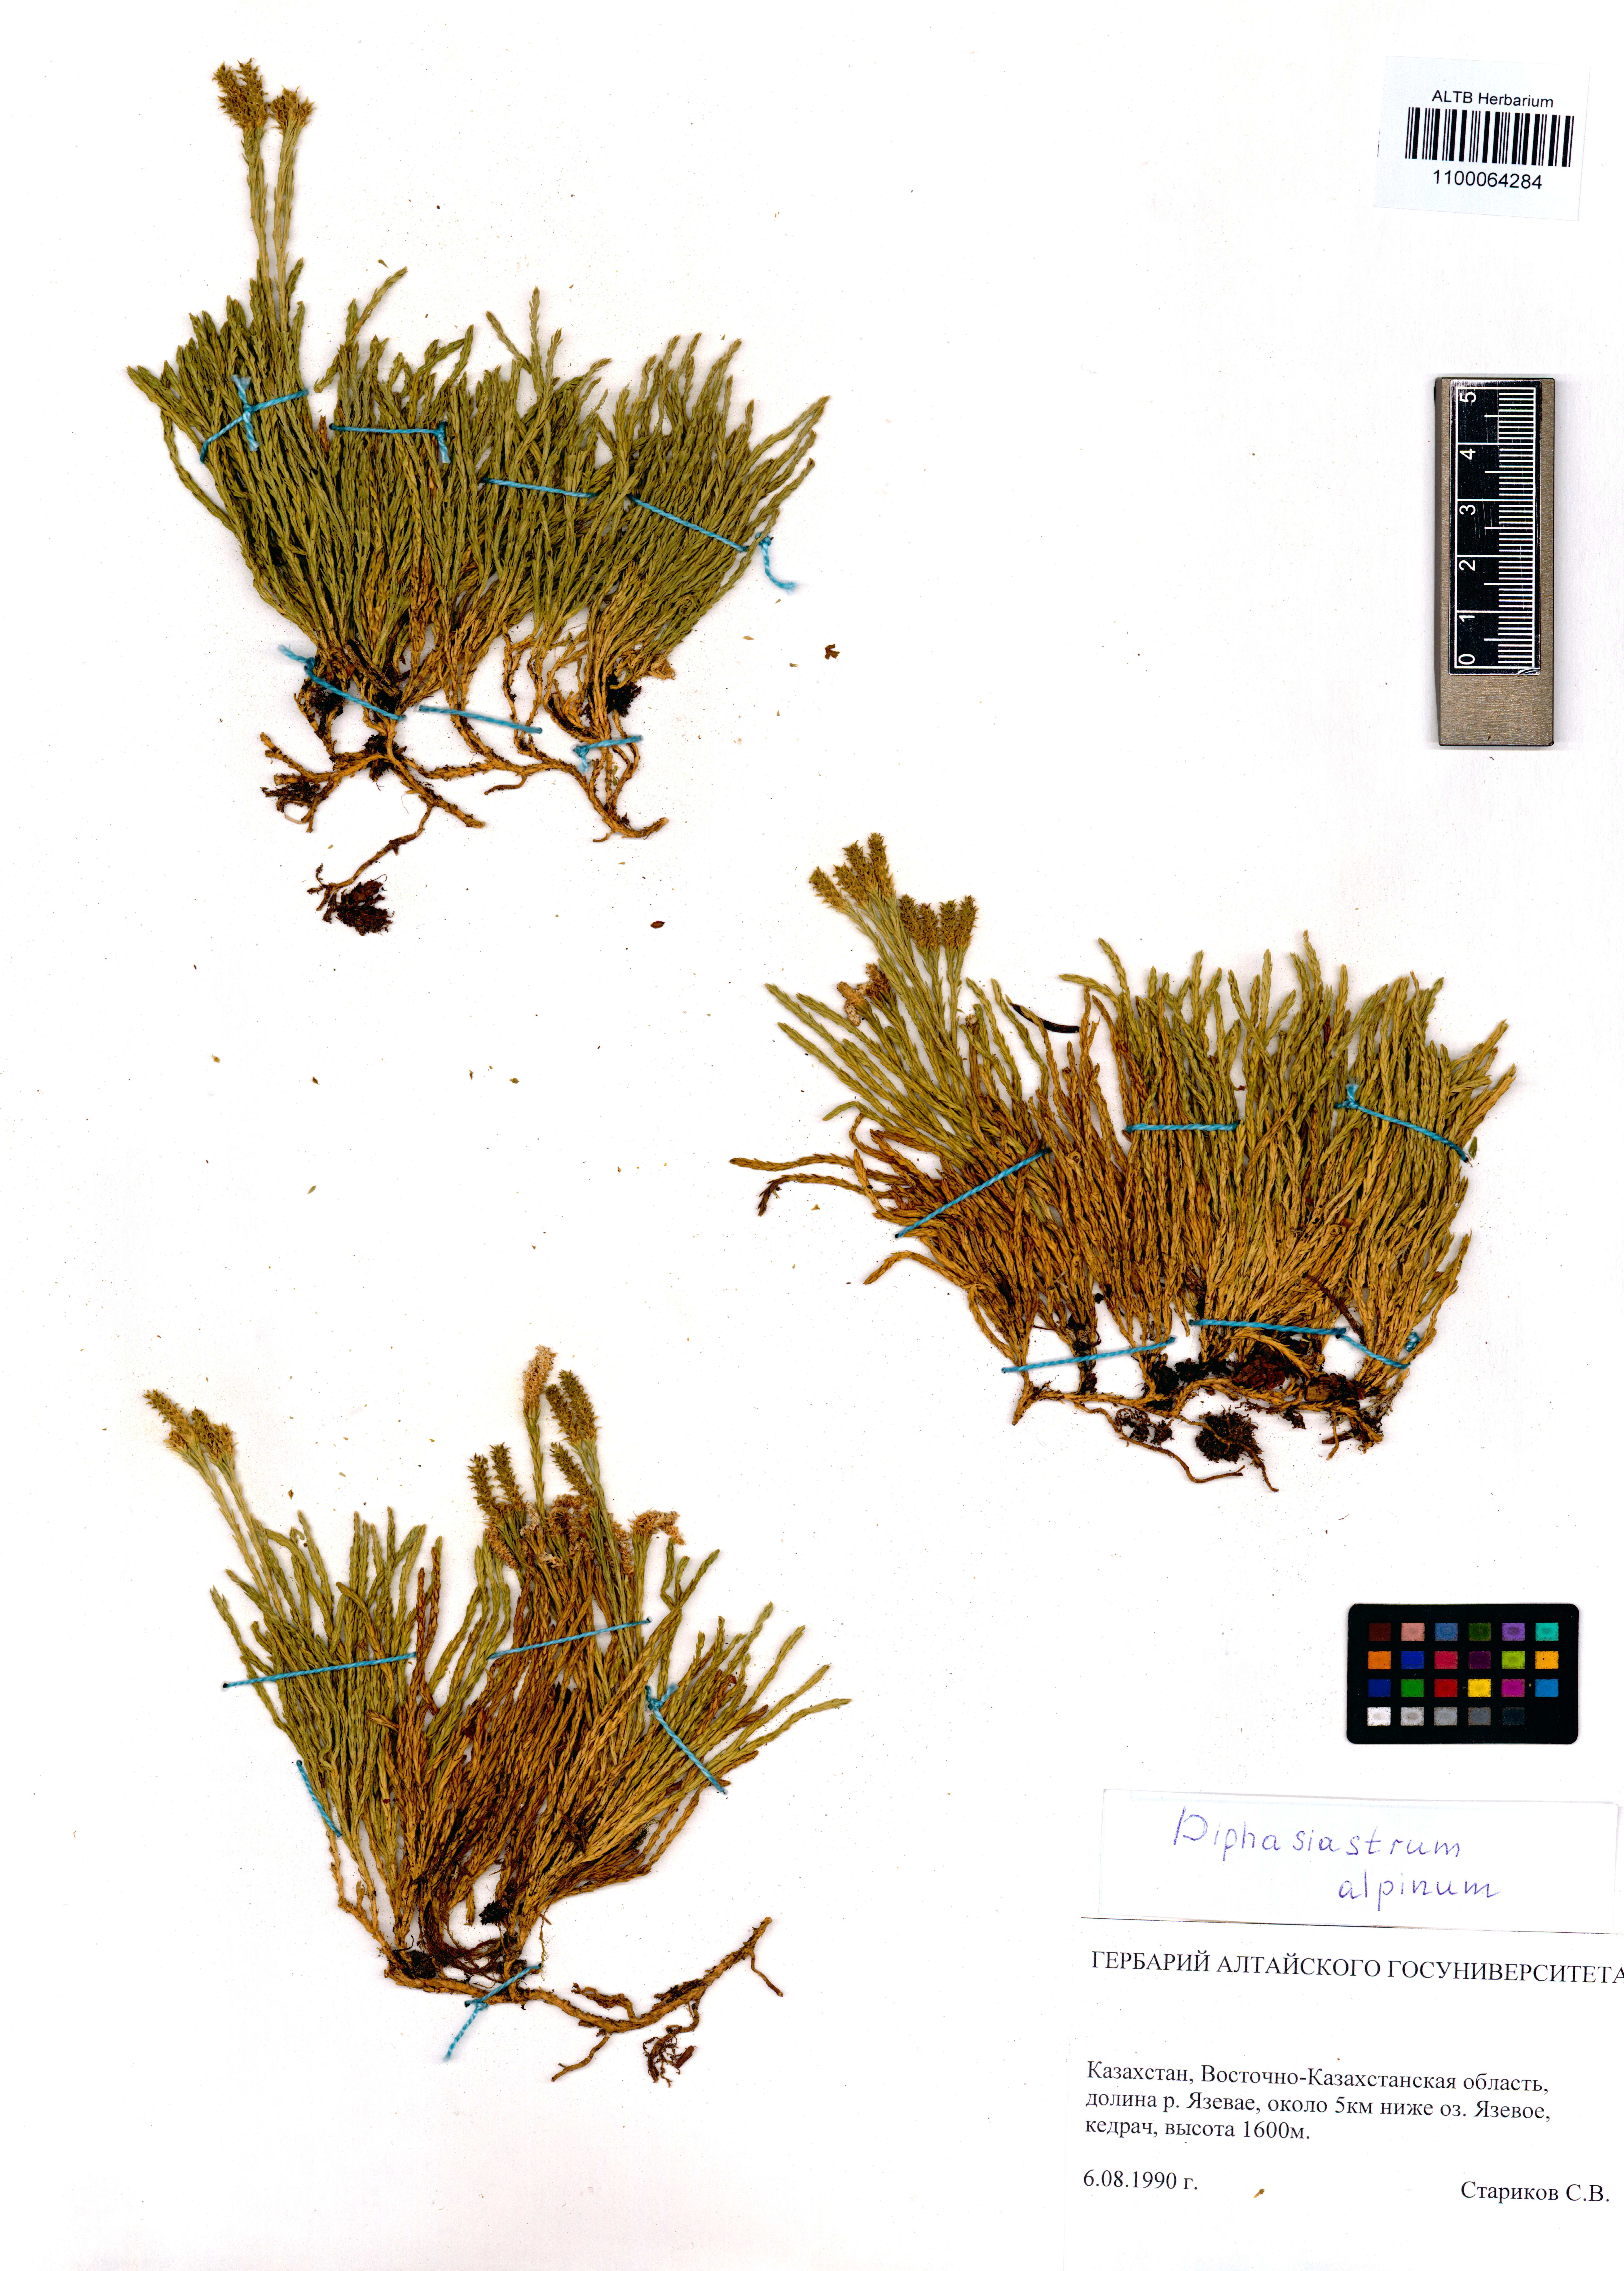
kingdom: Plantae
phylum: Tracheophyta
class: Lycopodiopsida
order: Lycopodiales
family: Lycopodiaceae
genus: Diphasiastrum
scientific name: Diphasiastrum alpinum
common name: Alpine clubmoss
